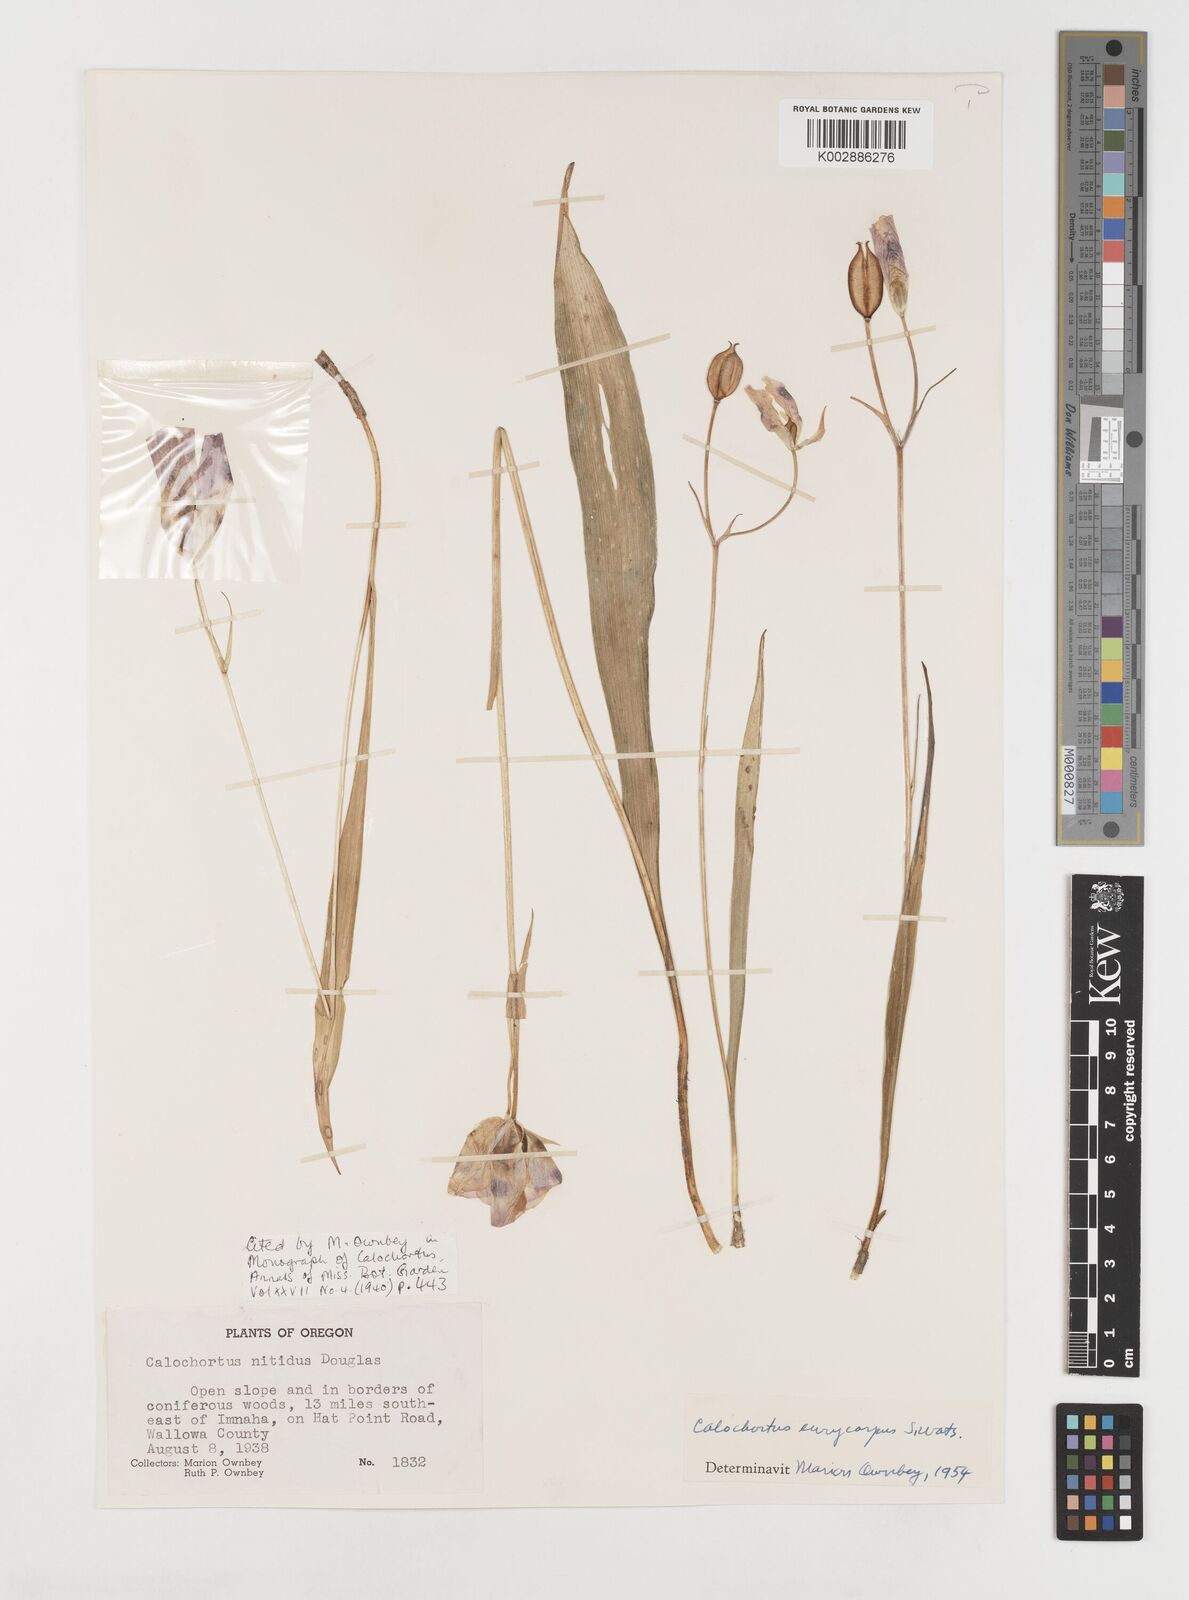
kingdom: Plantae
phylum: Tracheophyta
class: Liliopsida
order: Liliales
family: Liliaceae
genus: Calochortus
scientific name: Calochortus eurycarpus
